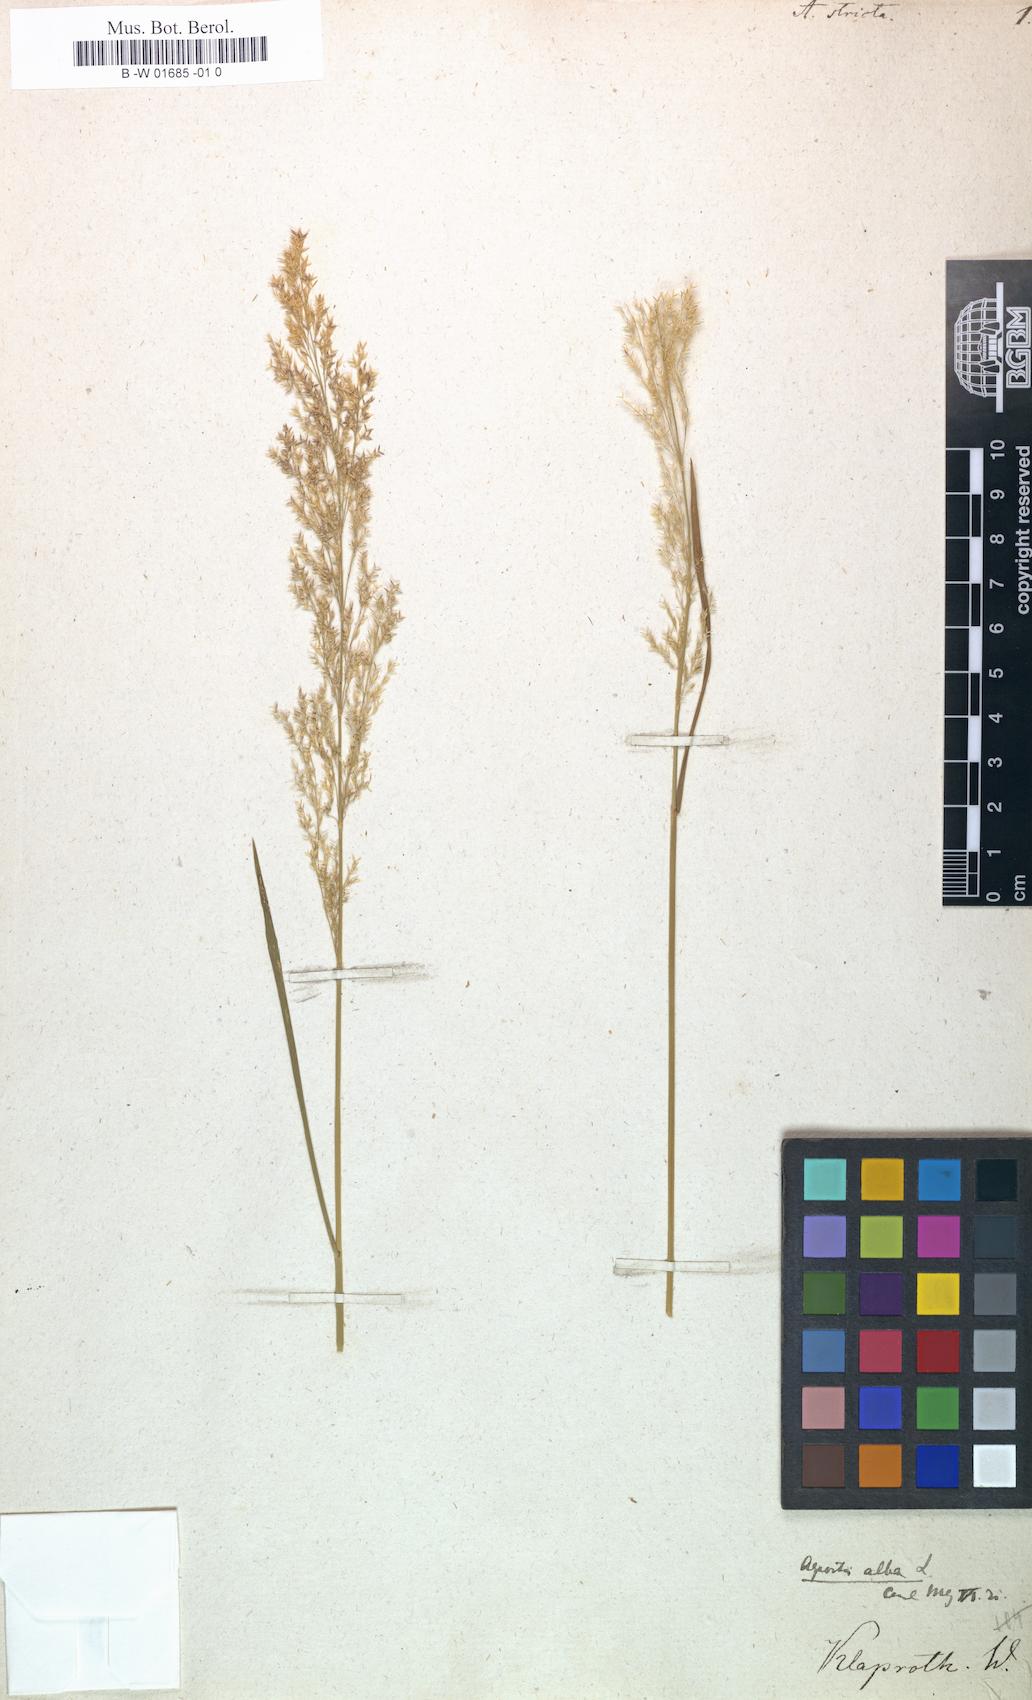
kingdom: Plantae
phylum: Tracheophyta
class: Liliopsida
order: Poales
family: Poaceae
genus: Agrostis
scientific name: Agrostis stricta
